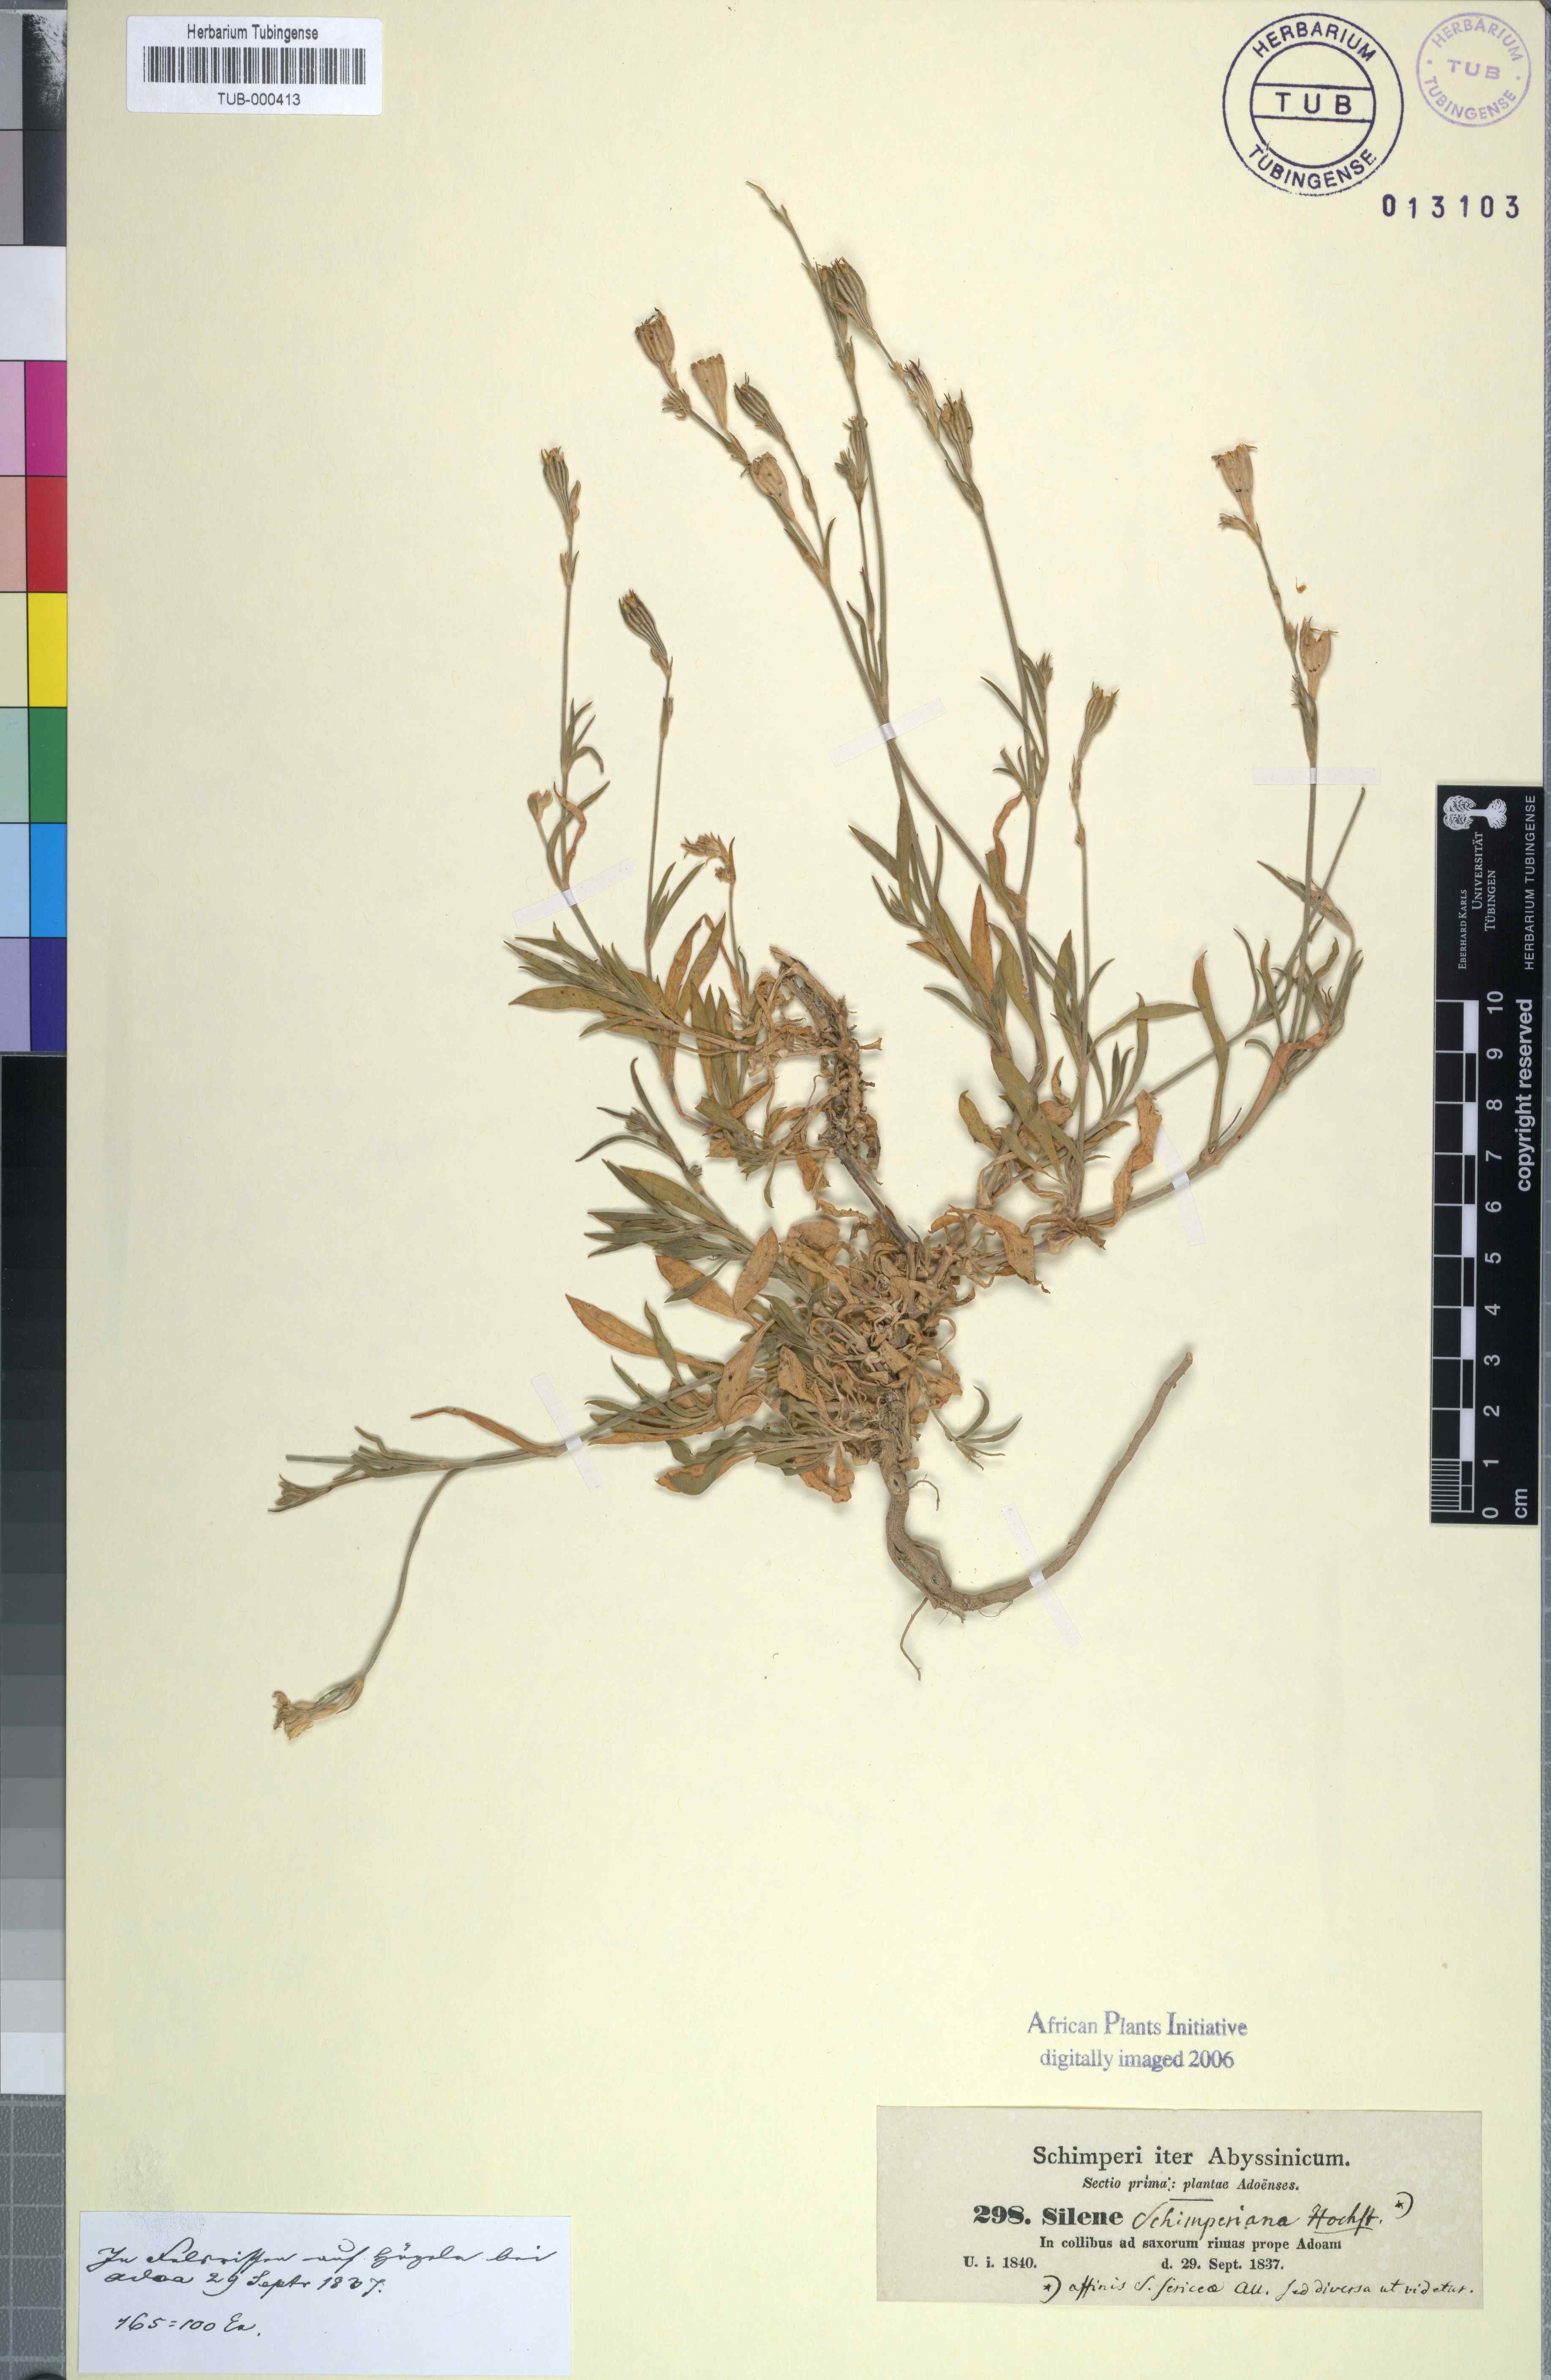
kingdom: Plantae
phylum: Tracheophyta
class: Magnoliopsida
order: Caryophyllales
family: Caryophyllaceae
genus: Silene
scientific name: Silene chirensis
